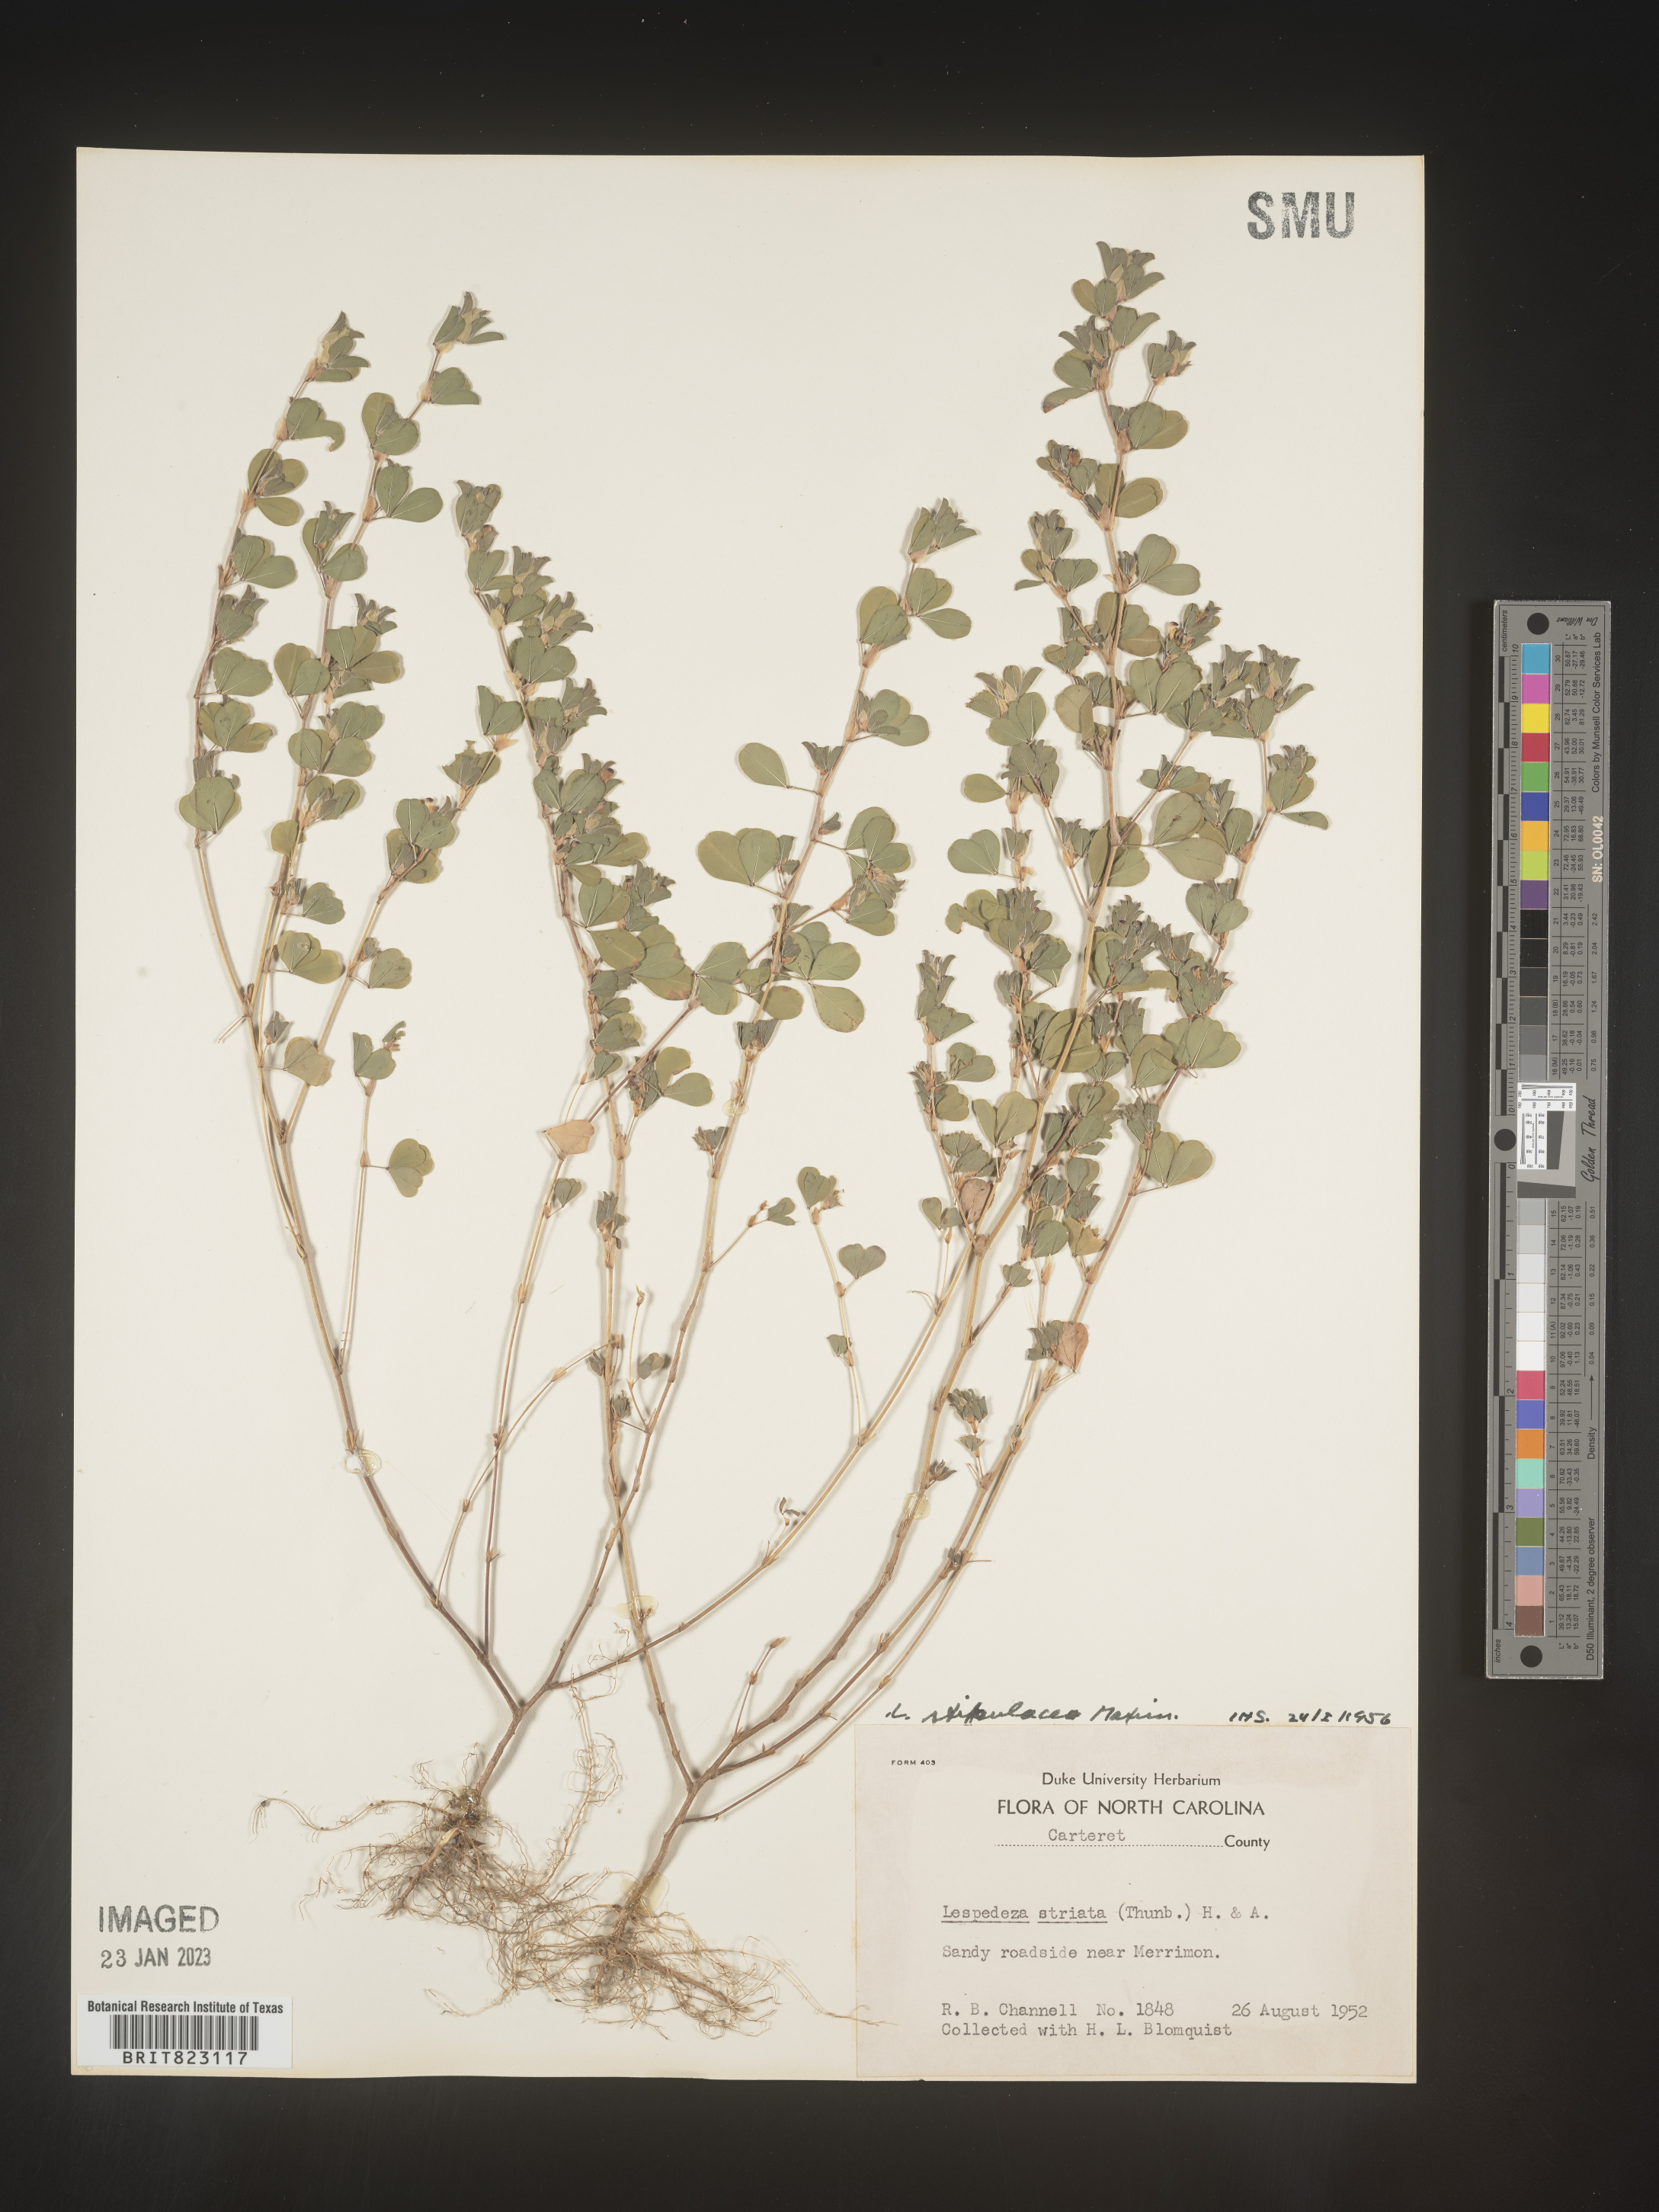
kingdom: Plantae
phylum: Tracheophyta
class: Magnoliopsida
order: Fabales
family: Fabaceae
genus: Lespedeza
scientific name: Lespedeza
